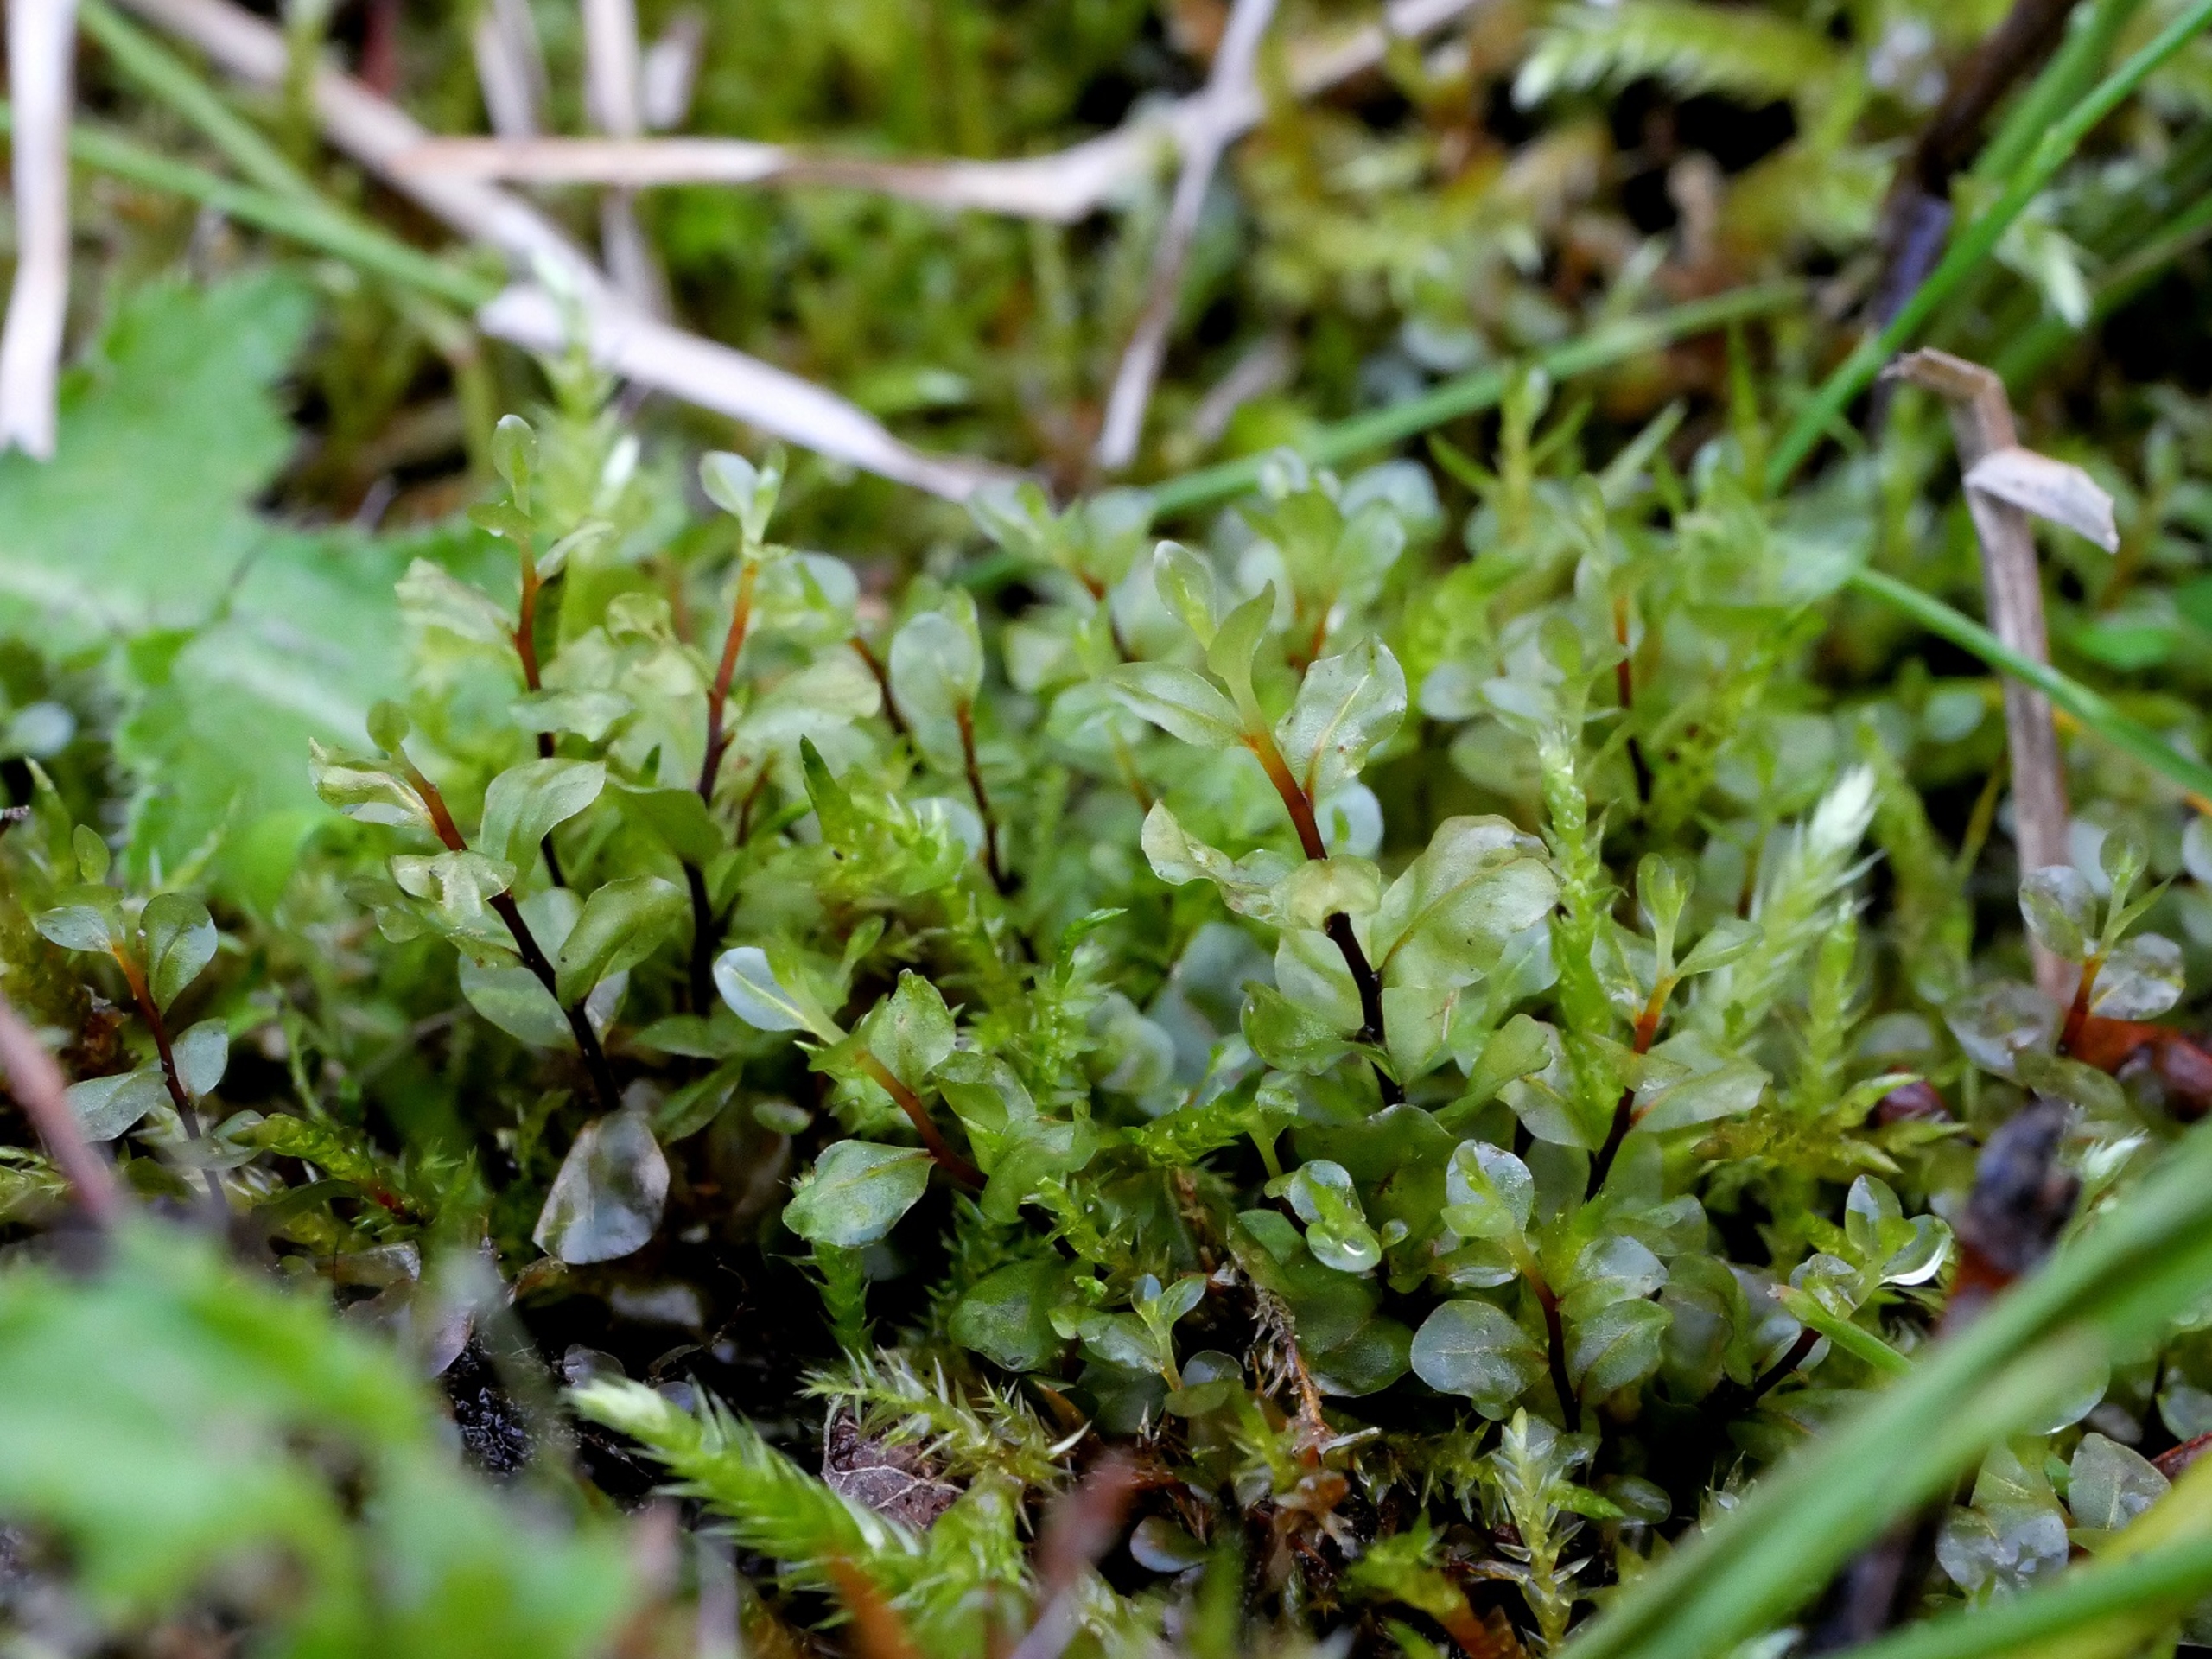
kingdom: Plantae
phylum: Bryophyta
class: Bryopsida
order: Bryales
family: Mniaceae
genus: Rhizomnium
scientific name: Rhizomnium pseudopunctatum
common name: Kær-bredblad
